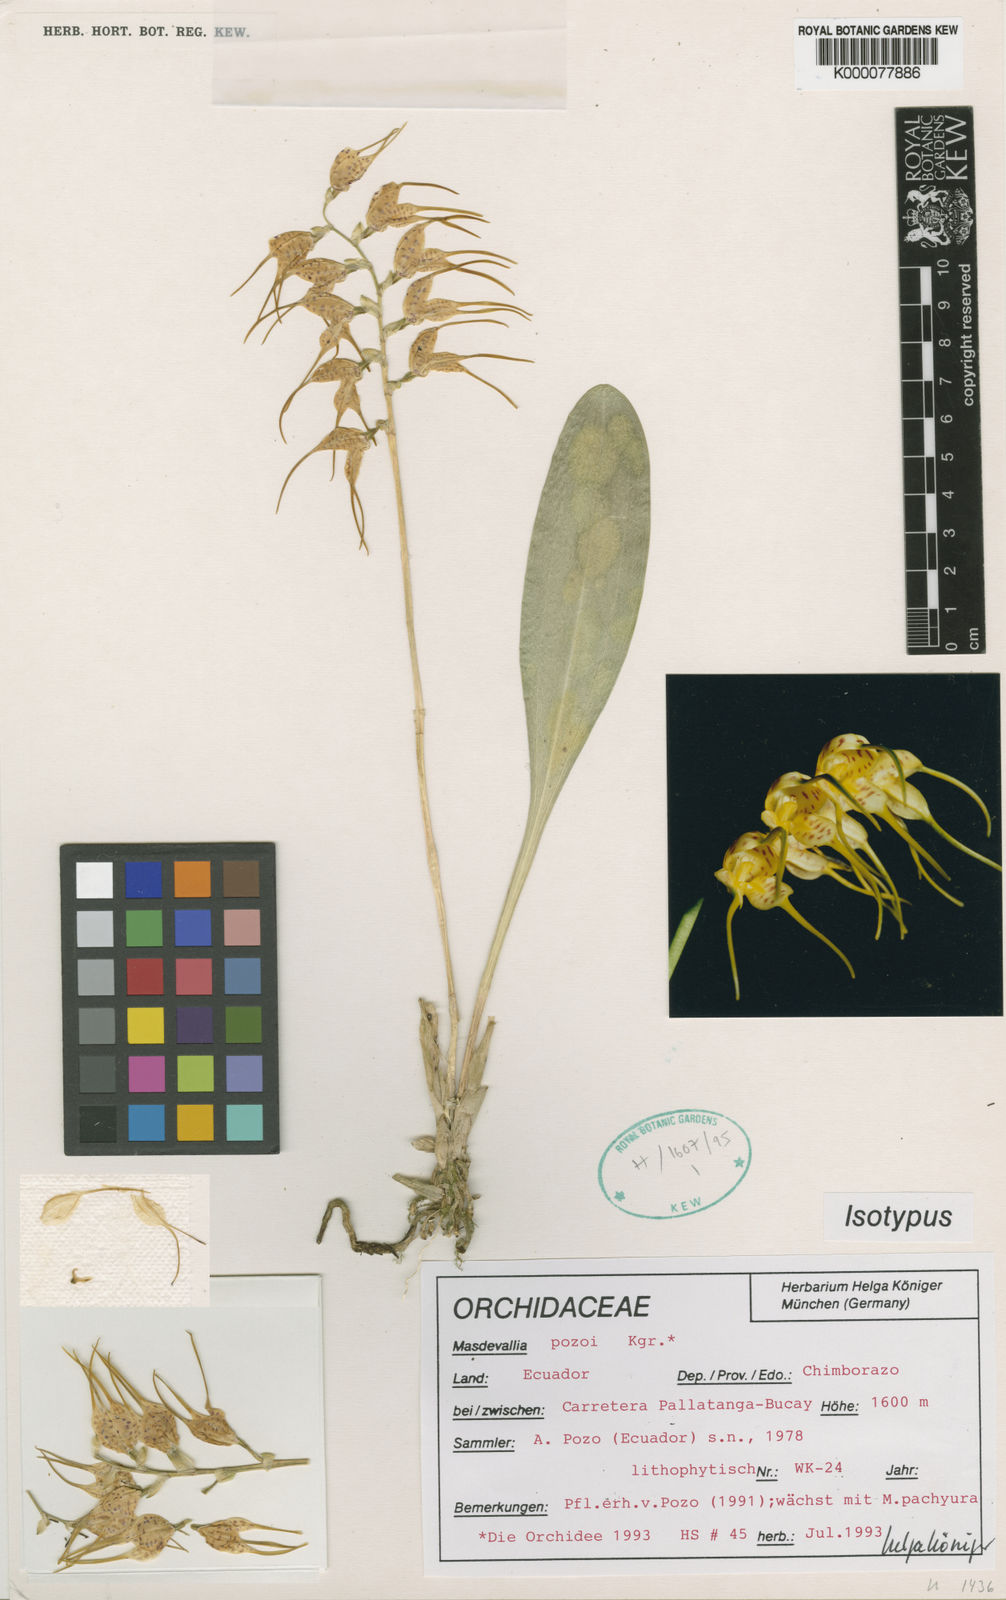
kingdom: Plantae
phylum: Tracheophyta
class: Liliopsida
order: Asparagales
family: Orchidaceae
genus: Masdevallia
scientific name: Masdevallia
